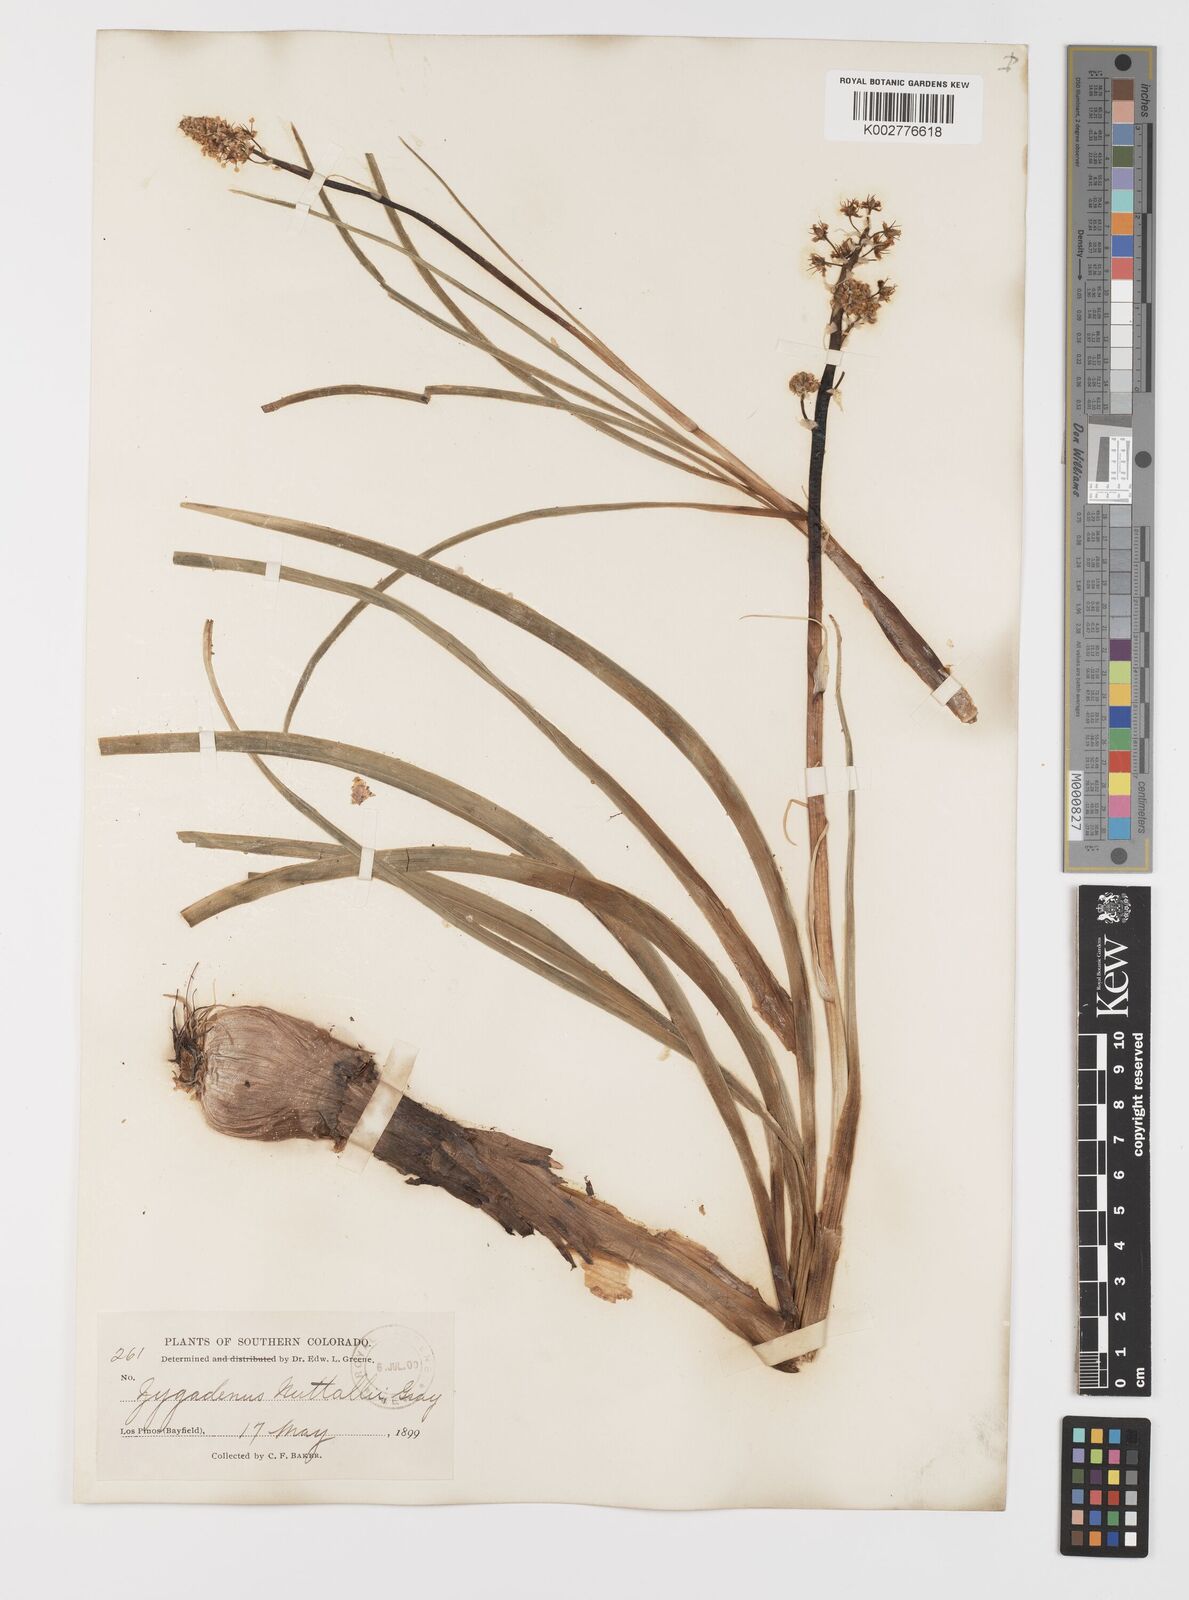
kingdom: Plantae
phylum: Tracheophyta
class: Liliopsida
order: Liliales
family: Melanthiaceae
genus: Toxicoscordion
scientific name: Toxicoscordion venenosum
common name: Meadow death camas
